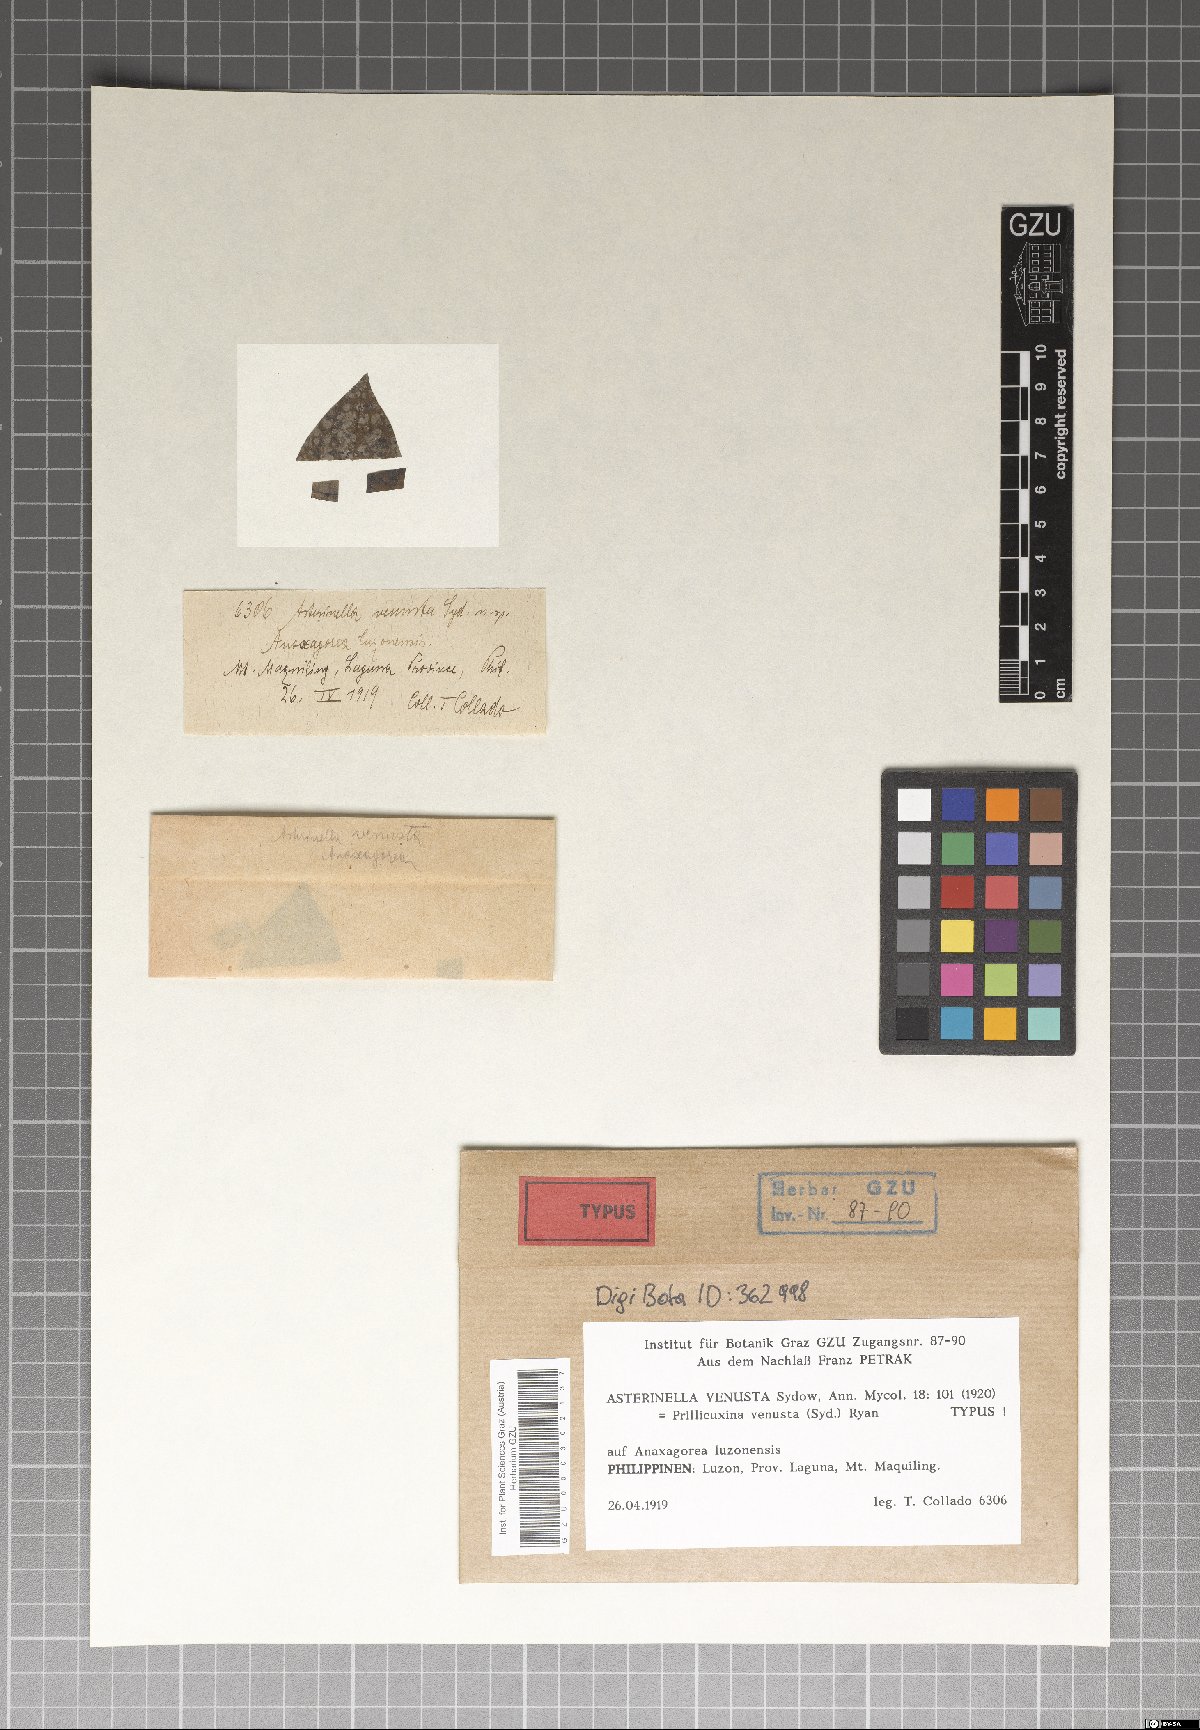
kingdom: Fungi
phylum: Ascomycota
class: Dothideomycetes
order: Asterinales
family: Asterinaceae
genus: Prillieuxina
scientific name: Prillieuxina venusta
